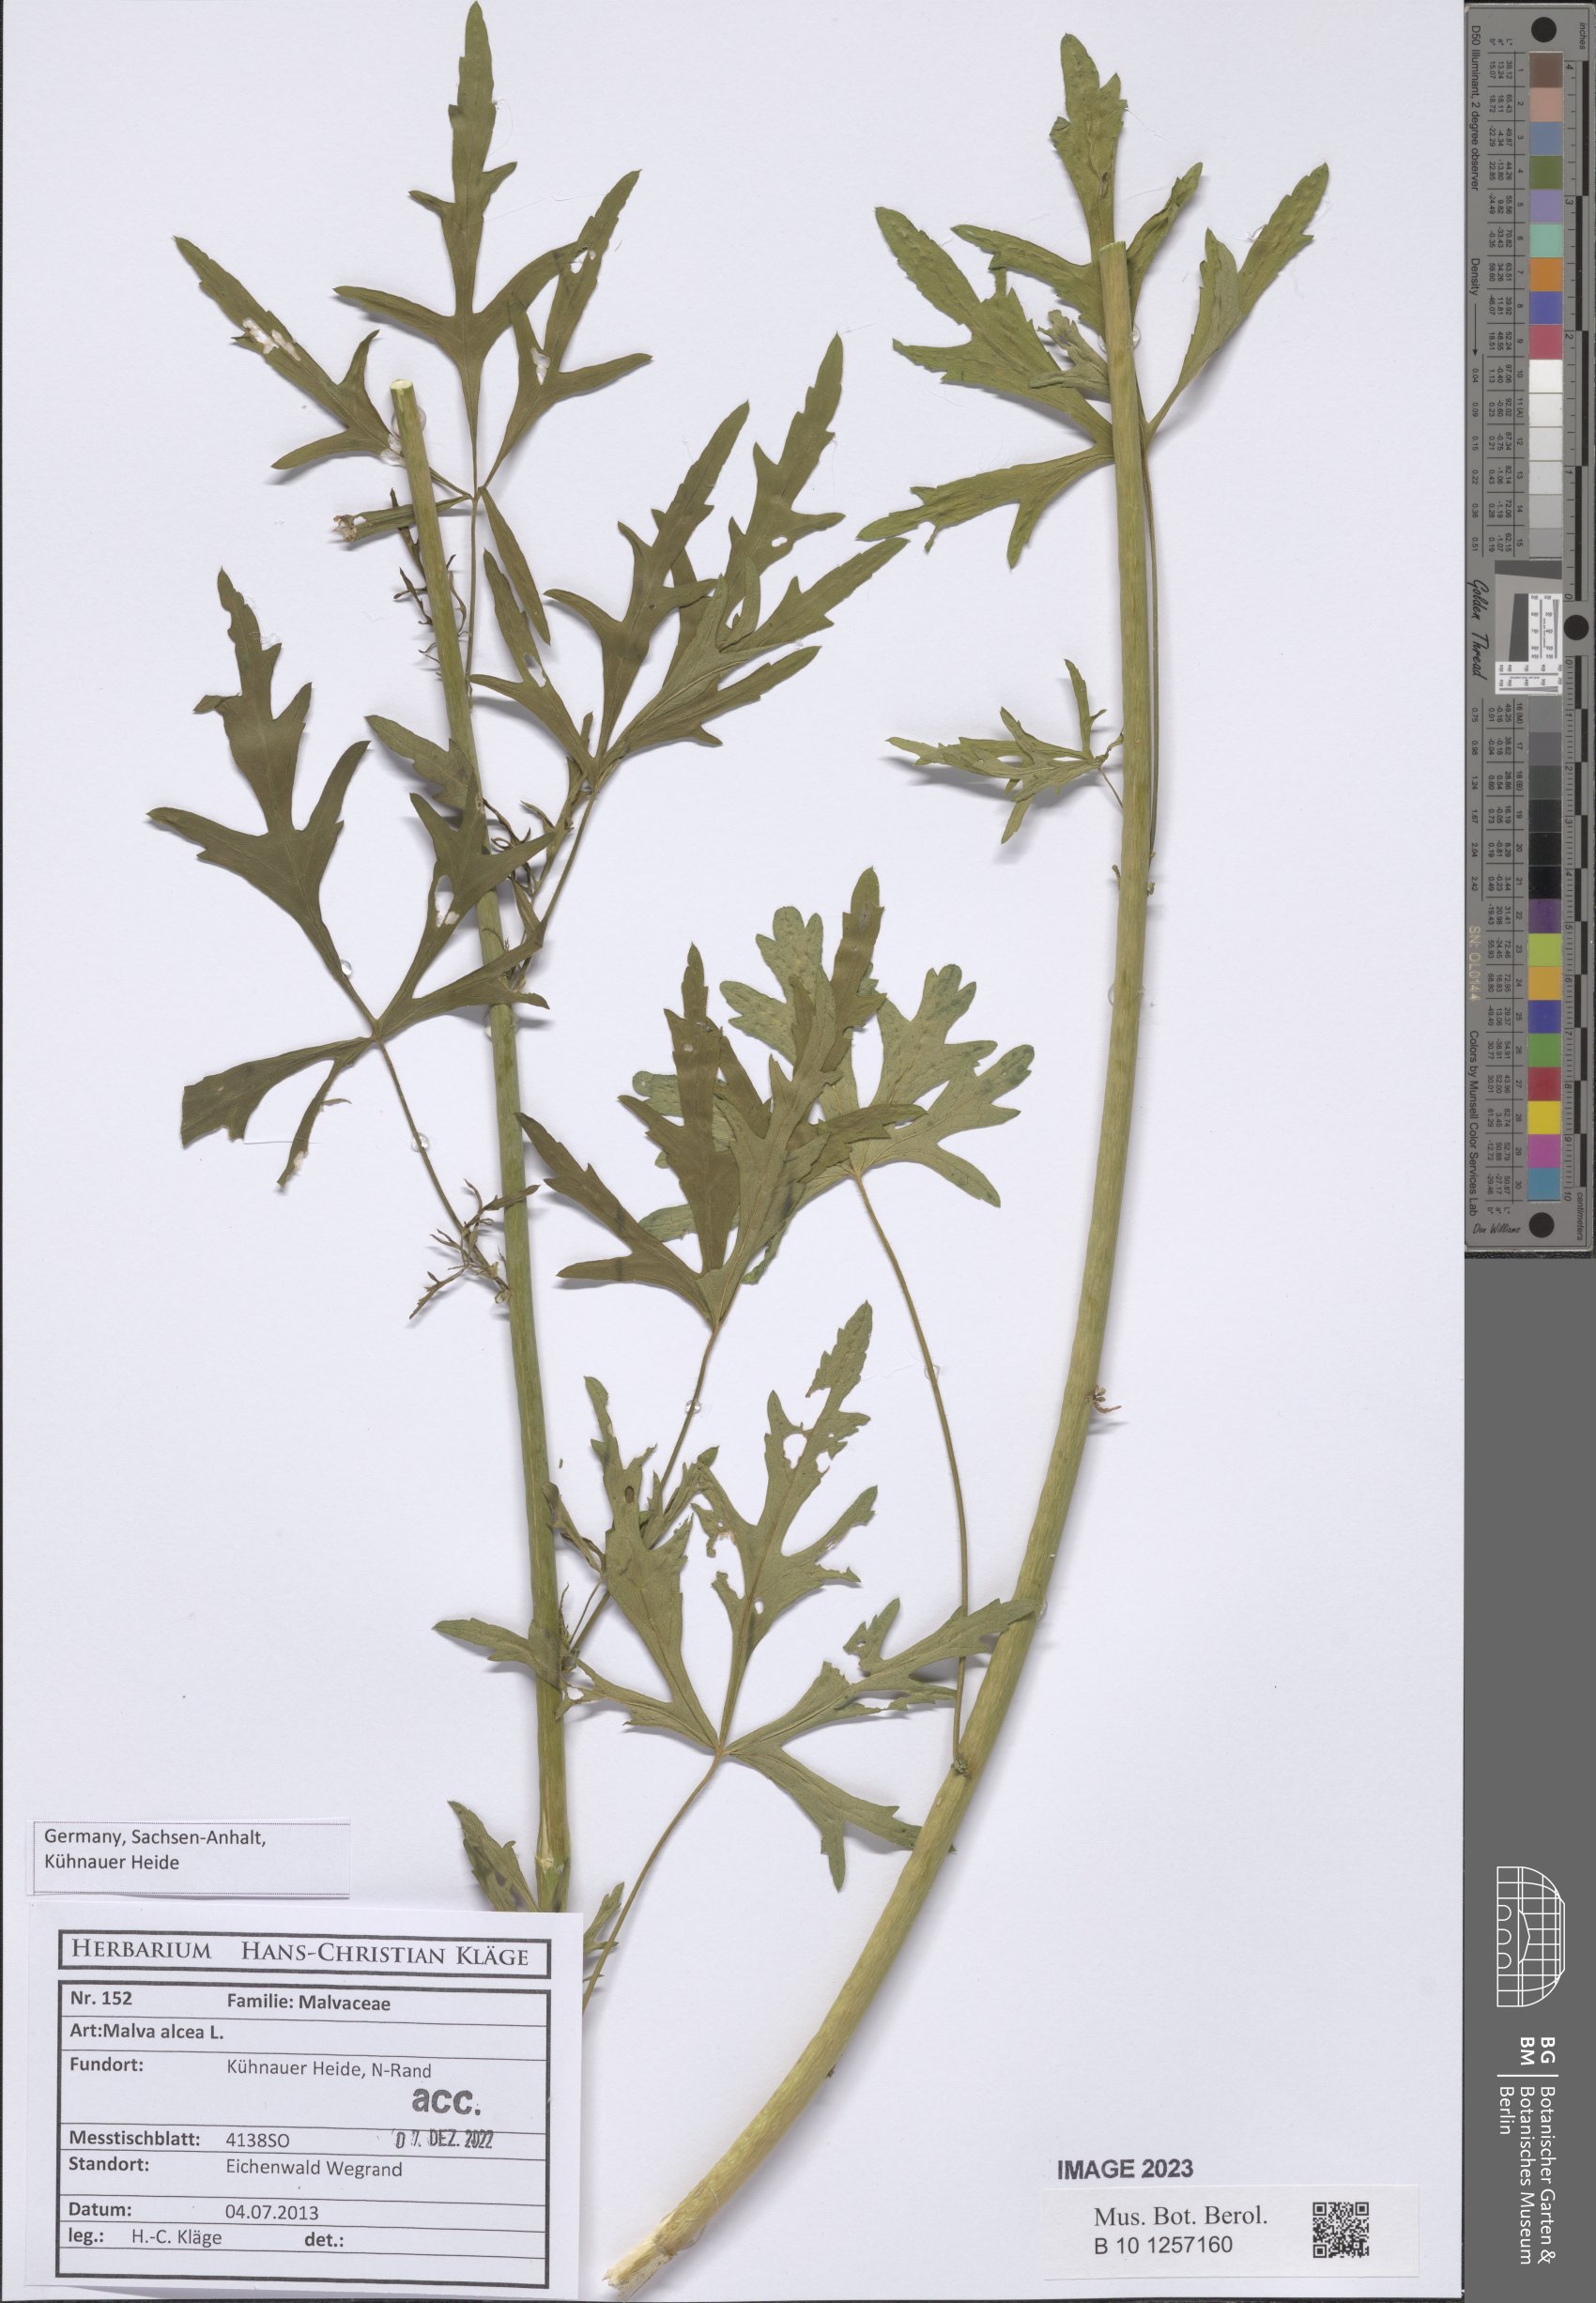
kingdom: Plantae
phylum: Tracheophyta
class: Magnoliopsida
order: Malvales
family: Malvaceae
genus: Malva
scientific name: Malva alcea
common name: Greater musk-mallow
